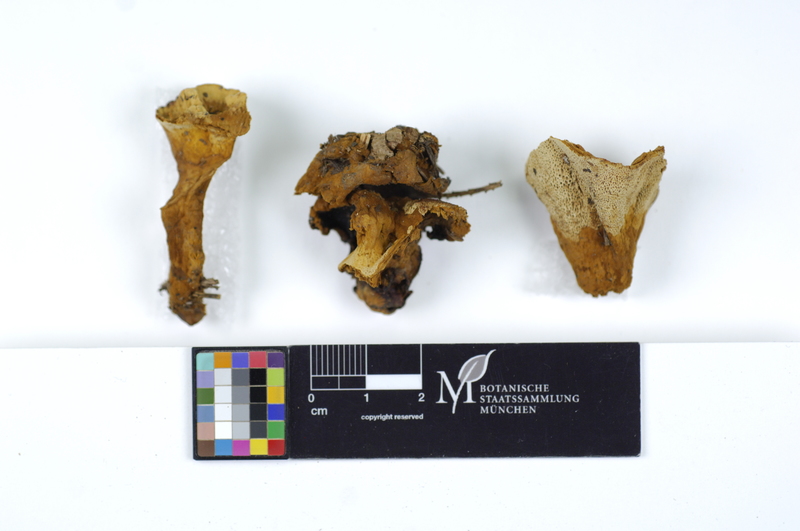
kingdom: Fungi
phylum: Basidiomycota
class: Agaricomycetes
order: Hymenochaetales
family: Hymenochaetaceae
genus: Coltricia
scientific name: Coltricia perennis
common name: Tiger's eye
